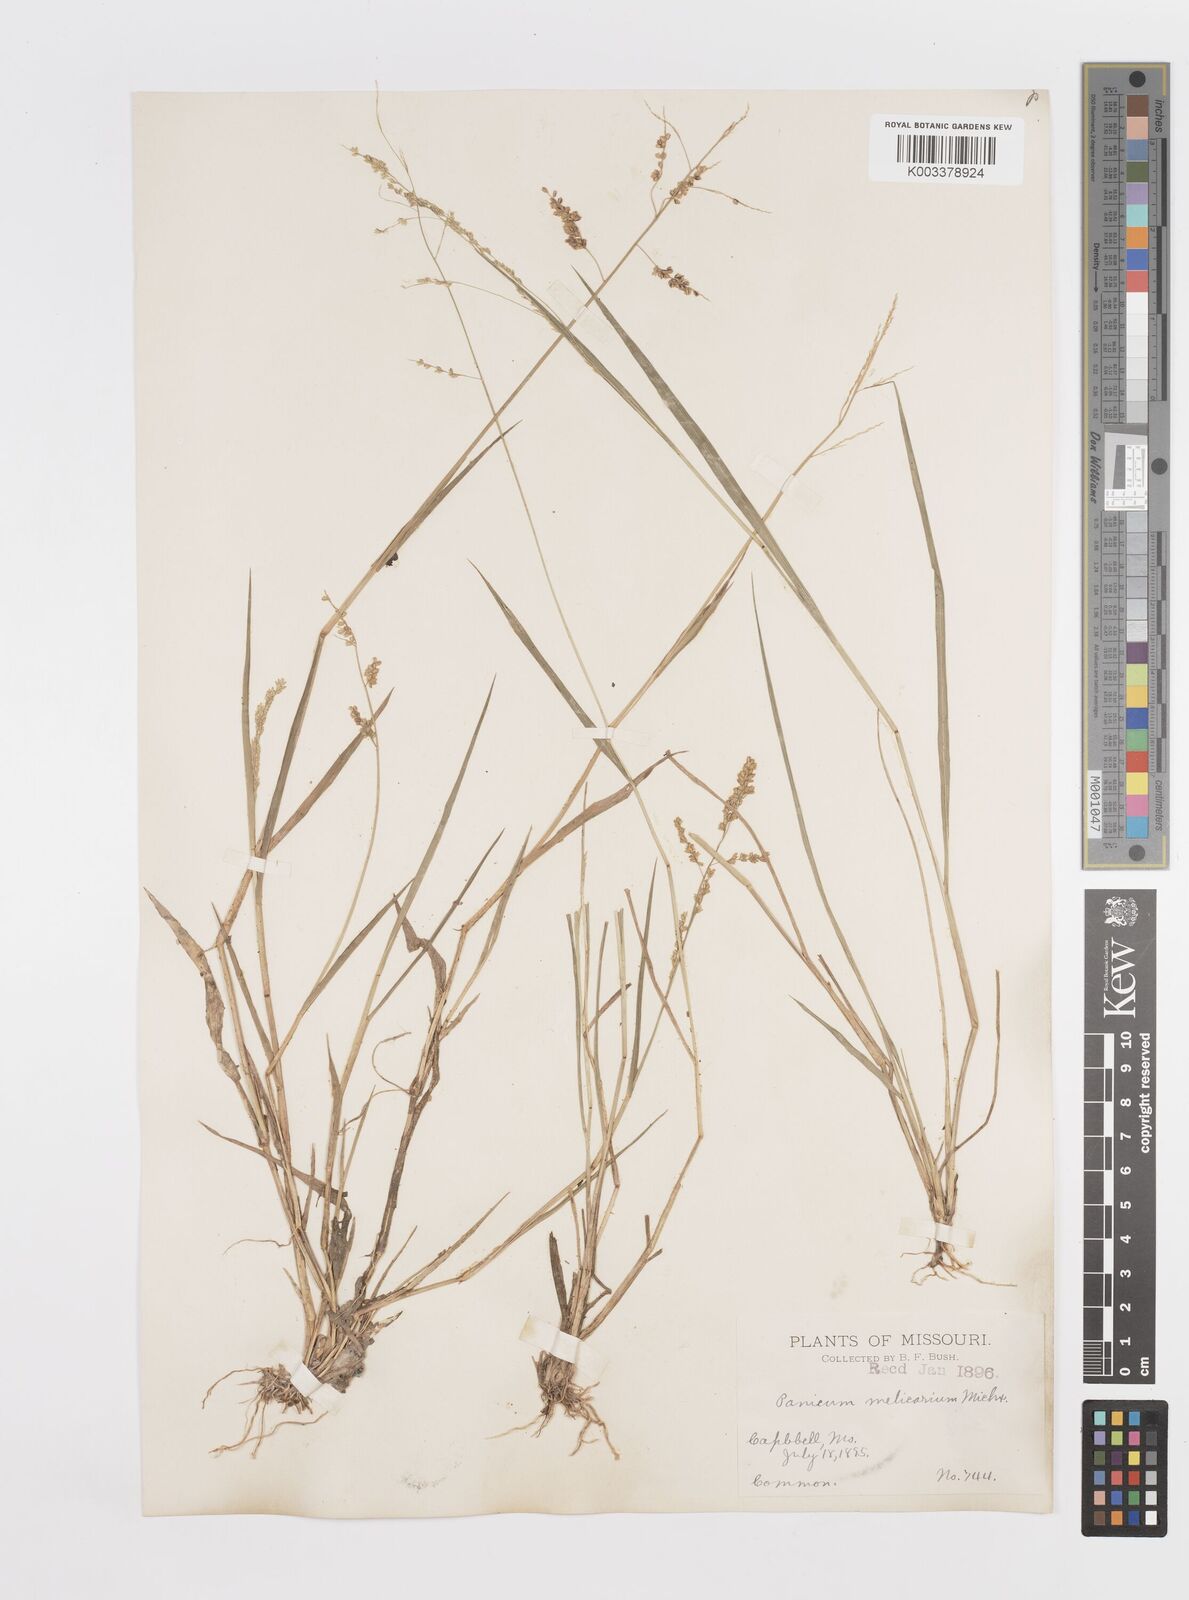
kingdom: Plantae
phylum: Tracheophyta
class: Liliopsida
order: Poales
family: Poaceae
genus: Steinchisma
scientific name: Steinchisma hians
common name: Gaping panic grass
